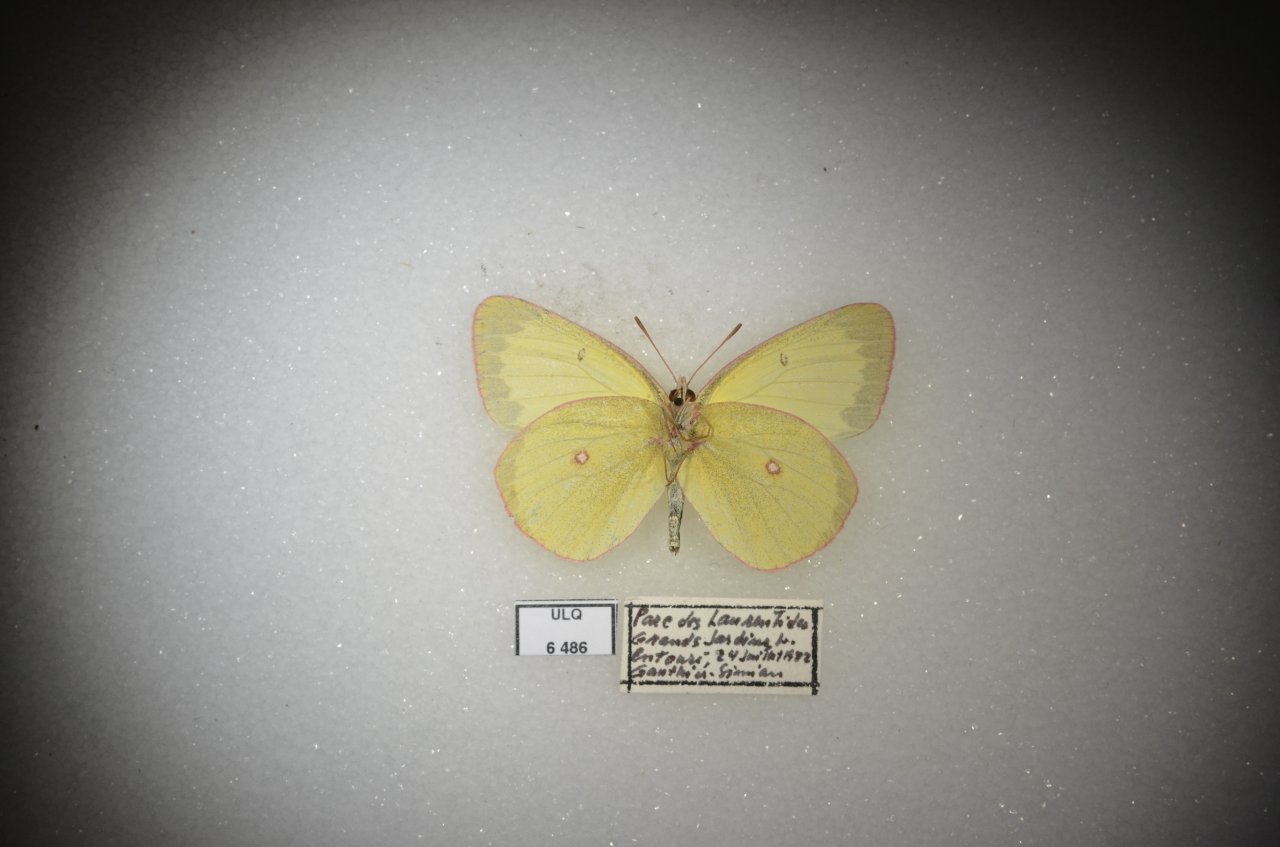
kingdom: Animalia
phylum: Arthropoda
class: Insecta
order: Lepidoptera
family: Pieridae
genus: Colias
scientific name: Colias interior
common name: Pink-edged Sulphur
